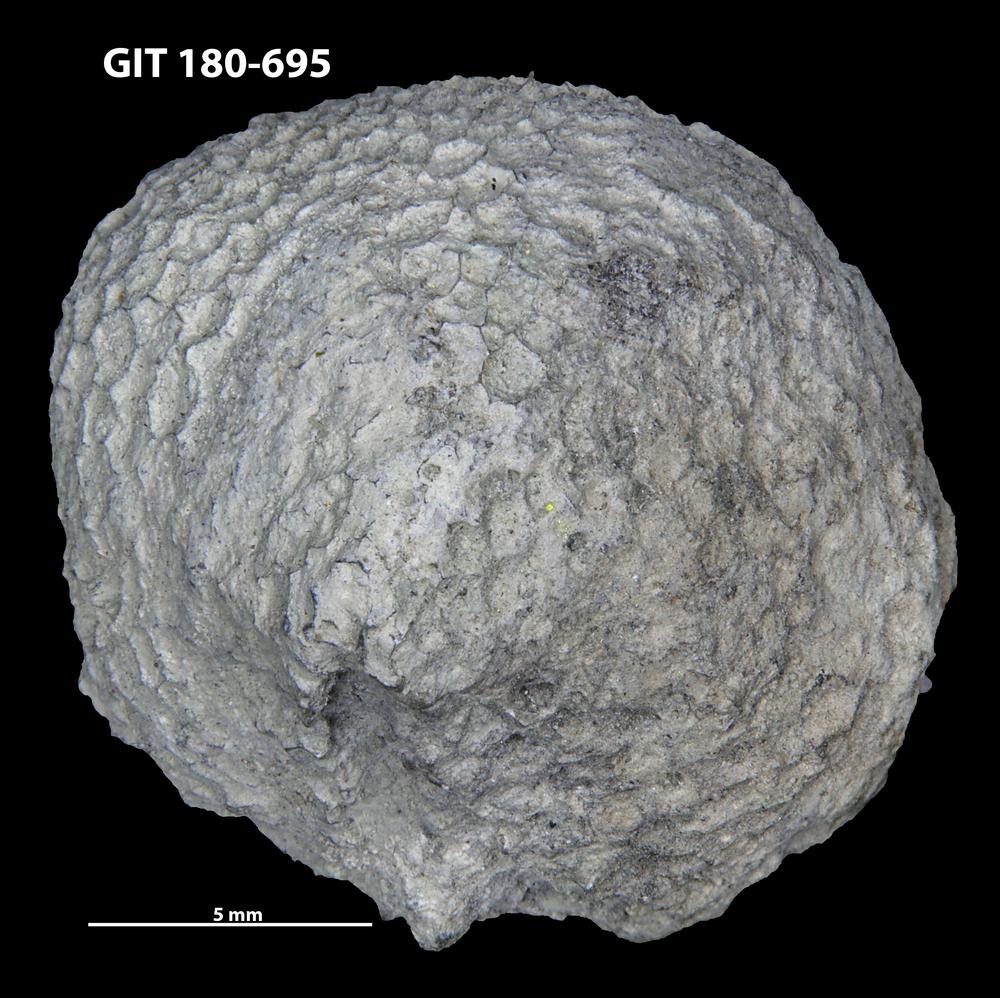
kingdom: Animalia
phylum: Cnidaria
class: Anthozoa
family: Favositidae
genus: Favosites
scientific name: Favosites
